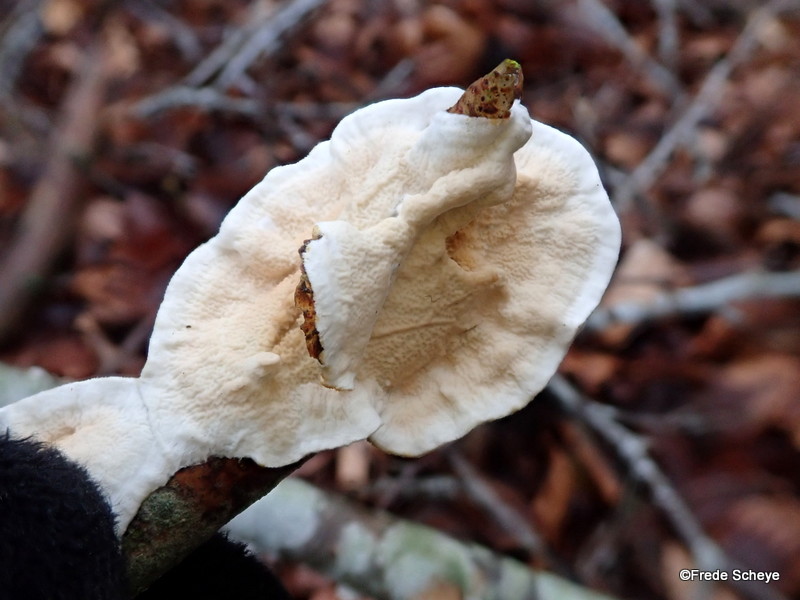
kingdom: Fungi
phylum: Basidiomycota
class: Agaricomycetes
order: Polyporales
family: Irpicaceae
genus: Byssomerulius
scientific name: Byssomerulius corium
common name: læder-åresvamp
